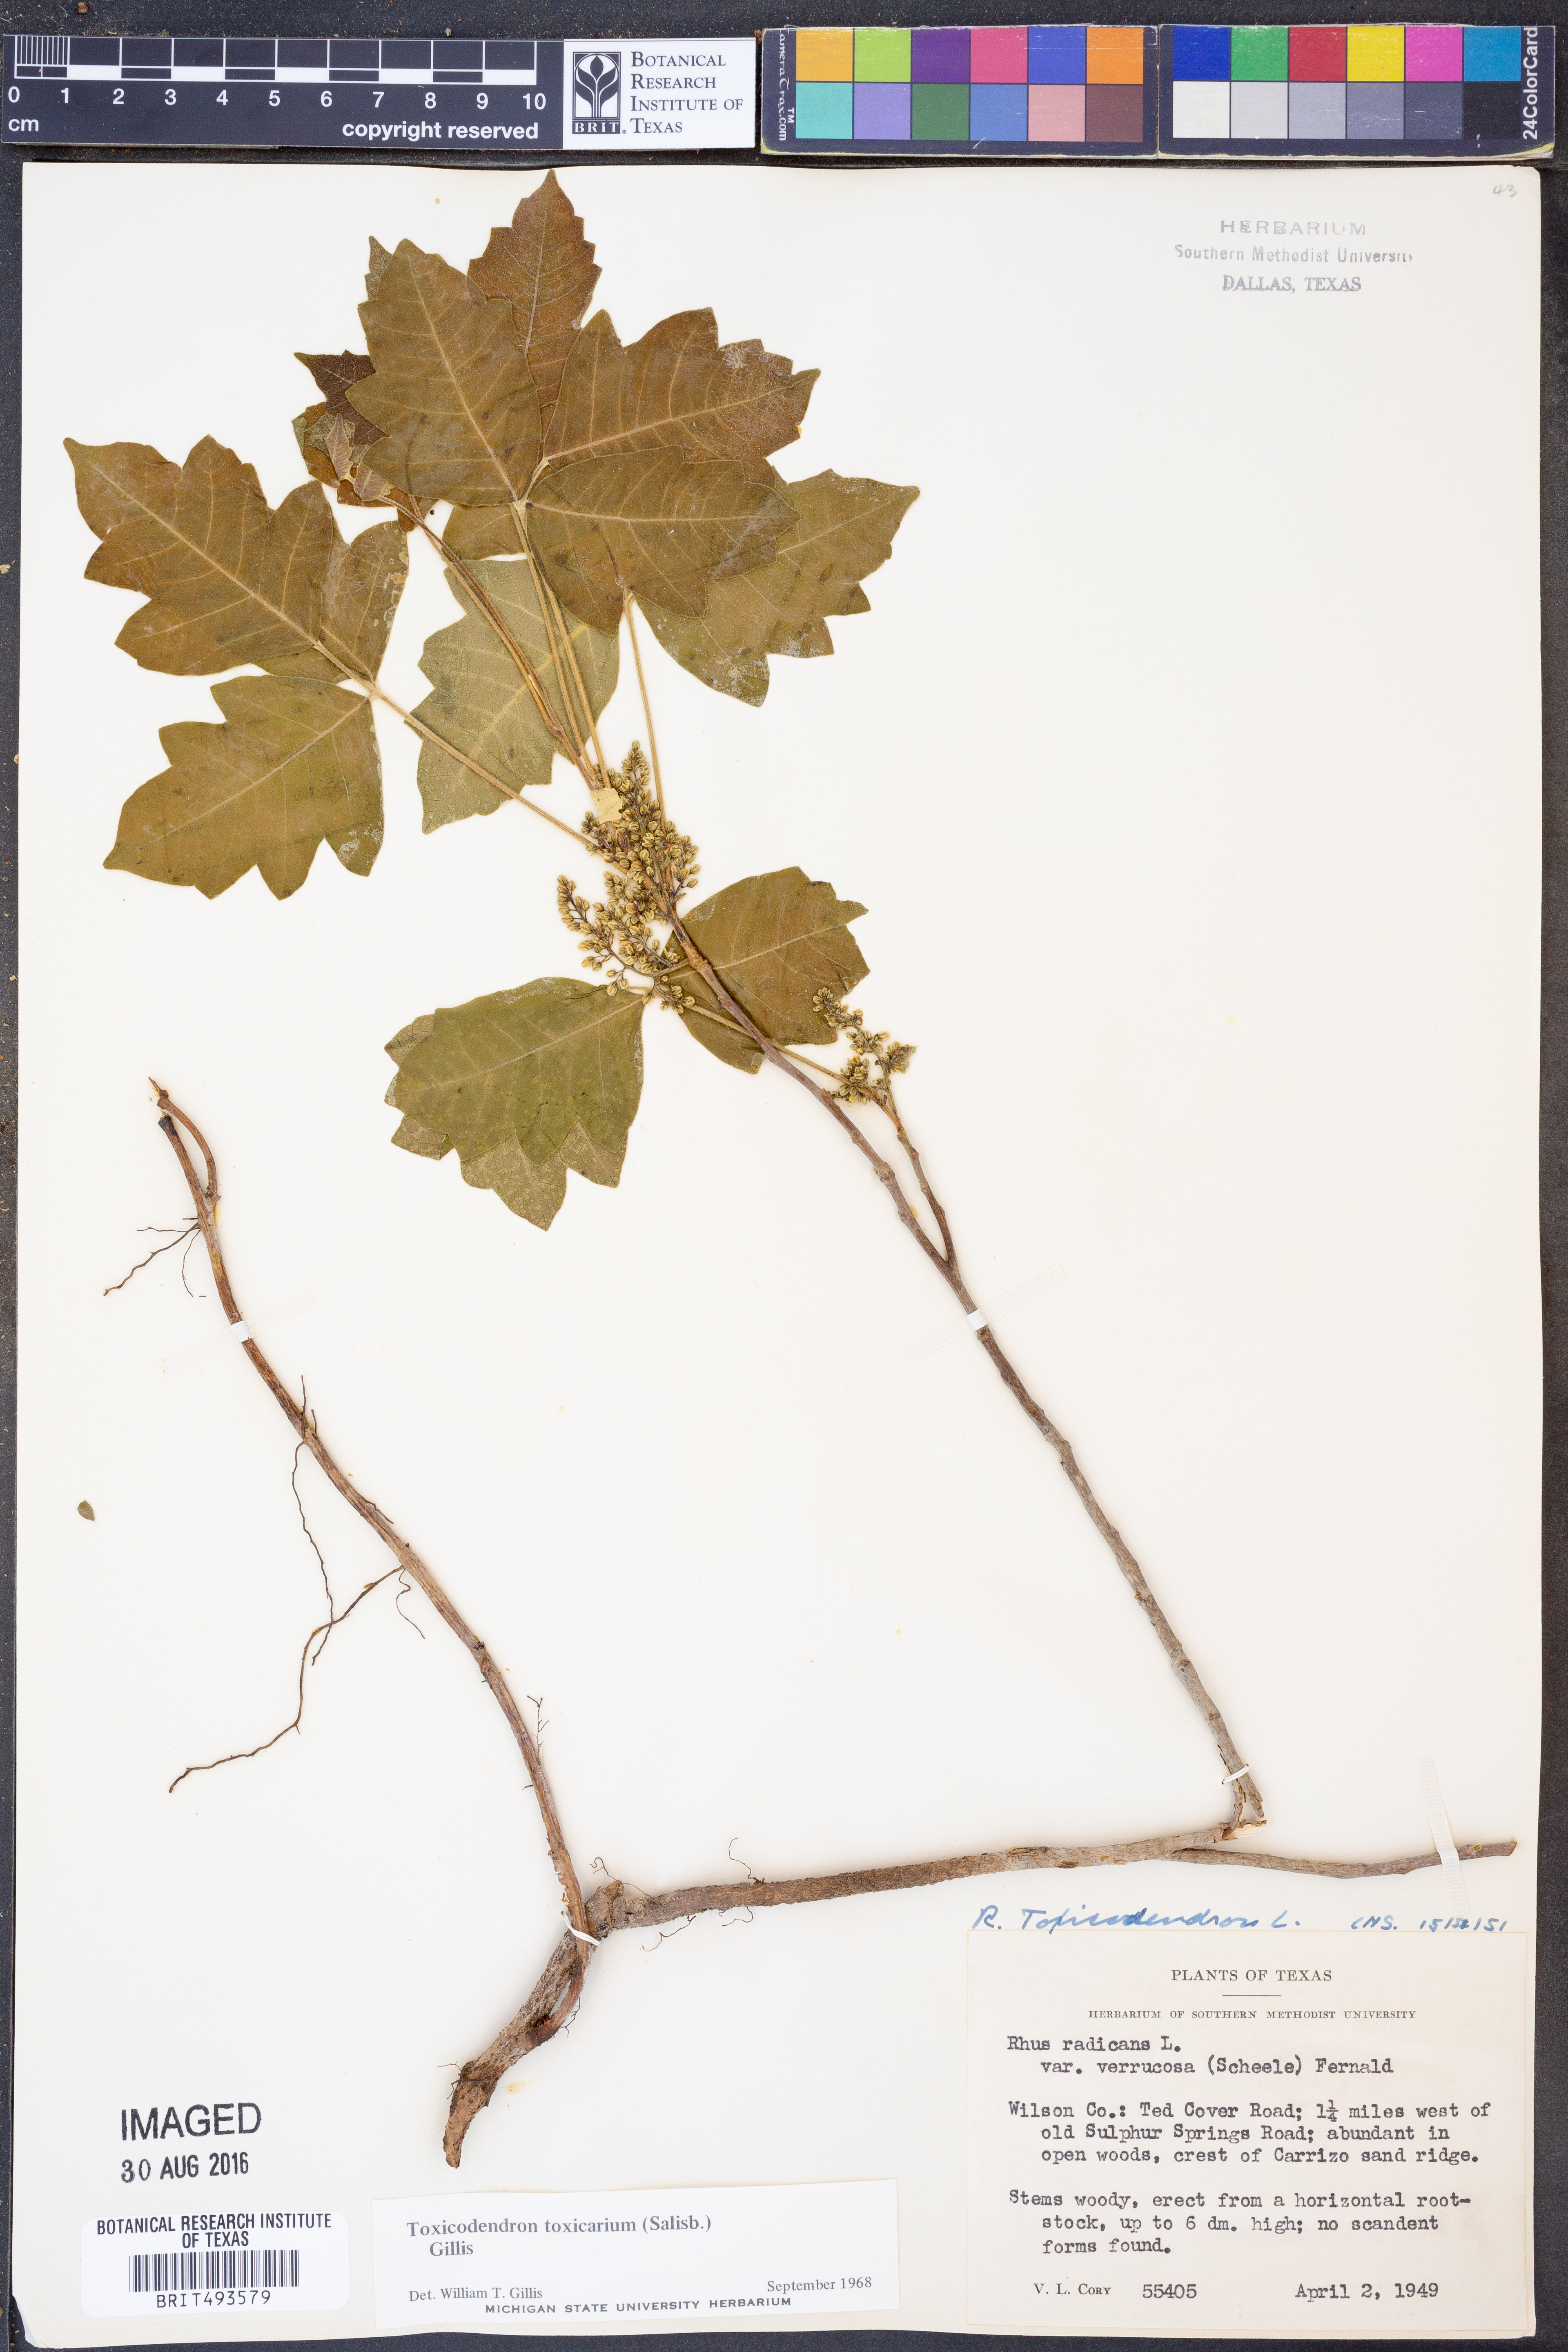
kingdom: Plantae
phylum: Tracheophyta
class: Magnoliopsida
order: Sapindales
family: Anacardiaceae
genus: Toxicodendron
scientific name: Toxicodendron pubescens
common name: Eastern poison-oak
